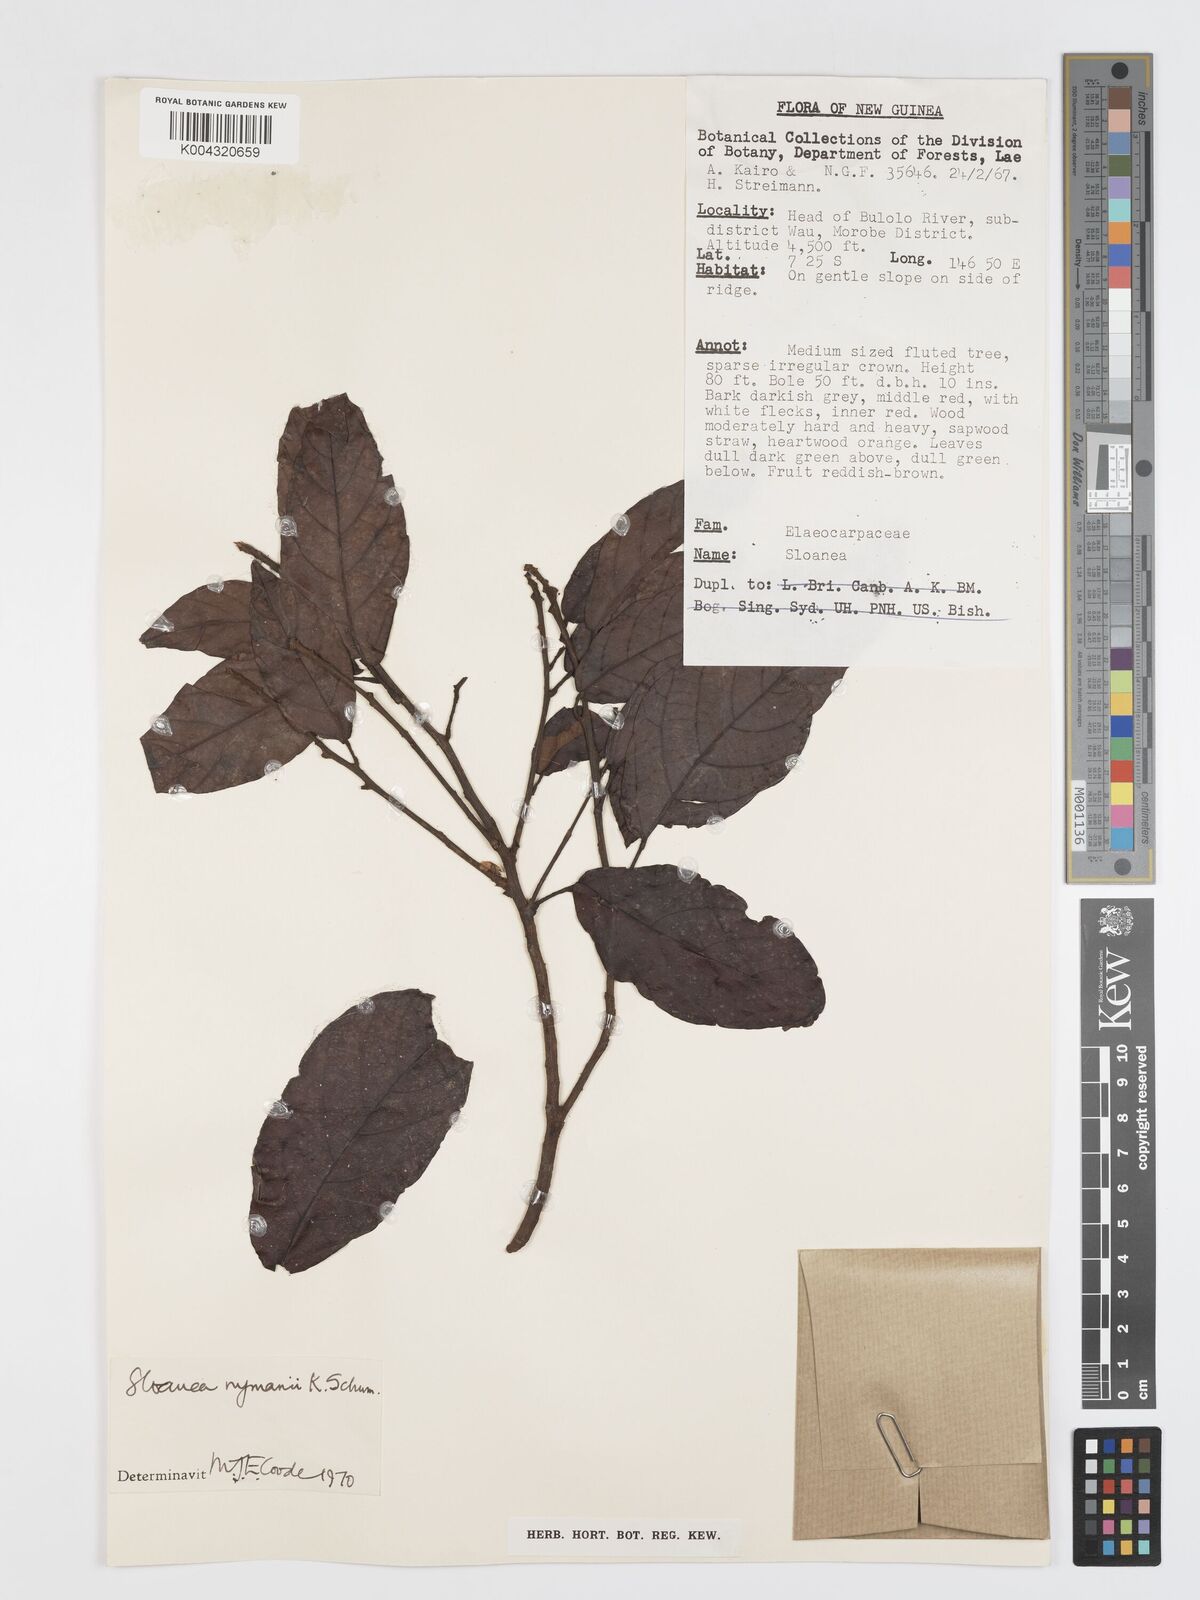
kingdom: Plantae
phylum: Tracheophyta
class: Magnoliopsida
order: Oxalidales
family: Elaeocarpaceae
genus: Sloanea
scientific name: Sloanea nymanii
